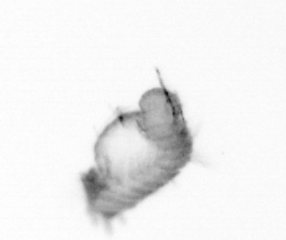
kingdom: Animalia
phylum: Annelida
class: Polychaeta
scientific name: Polychaeta
